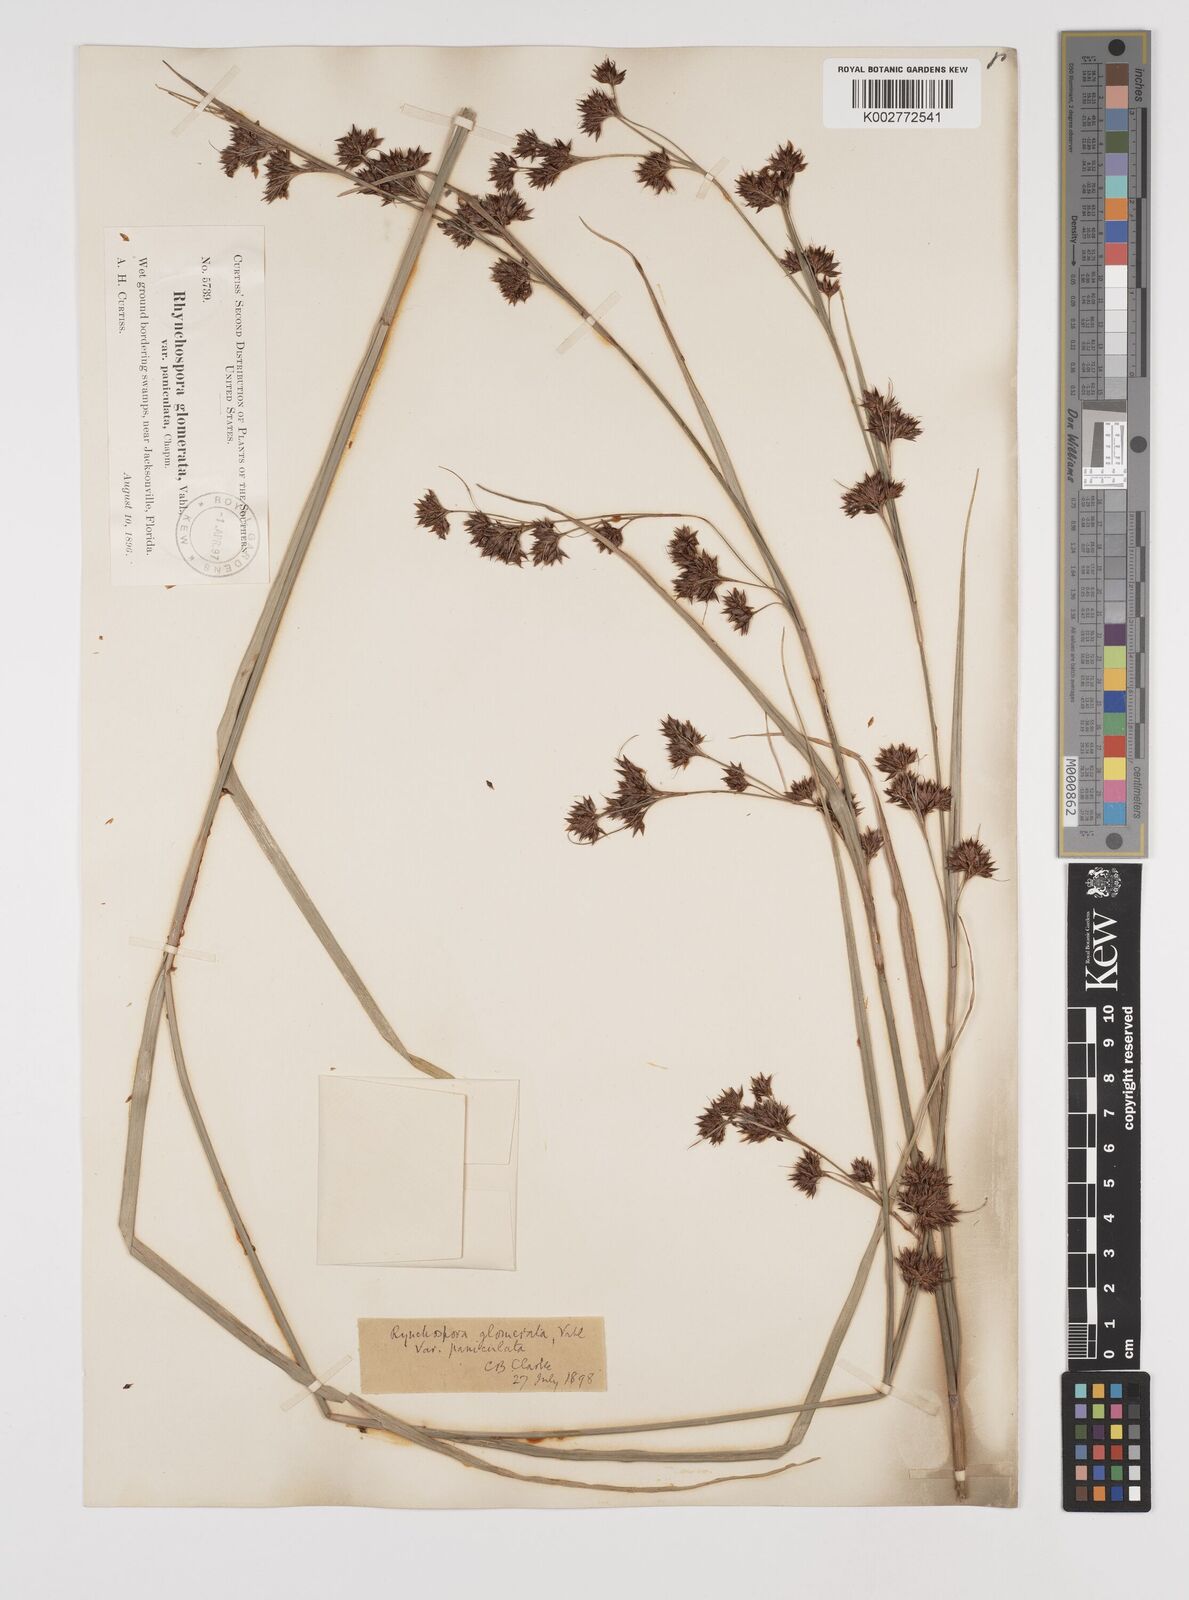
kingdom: Plantae
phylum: Tracheophyta
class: Liliopsida
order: Poales
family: Cyperaceae
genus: Rhynchospora
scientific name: Rhynchospora glomerata
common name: Cluster beak sedge
